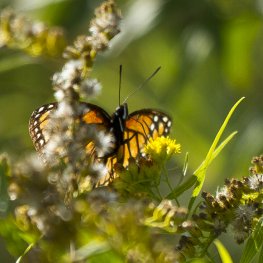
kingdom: Animalia
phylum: Arthropoda
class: Insecta
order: Lepidoptera
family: Nymphalidae
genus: Limenitis
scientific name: Limenitis archippus
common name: Viceroy
